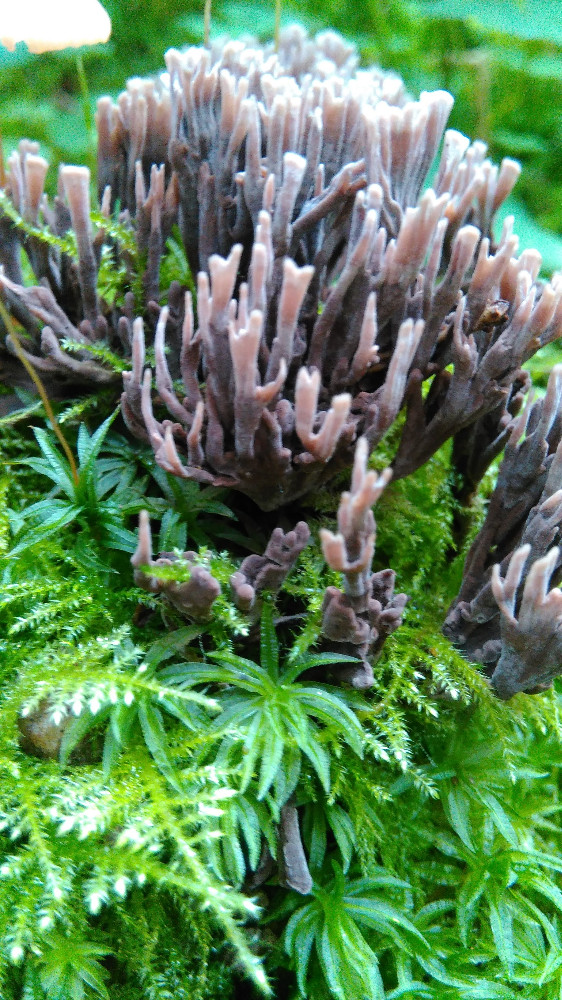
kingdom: Fungi
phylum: Basidiomycota
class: Agaricomycetes
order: Thelephorales
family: Thelephoraceae
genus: Thelephora
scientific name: Thelephora palmata
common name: grenet frynsesvamp
